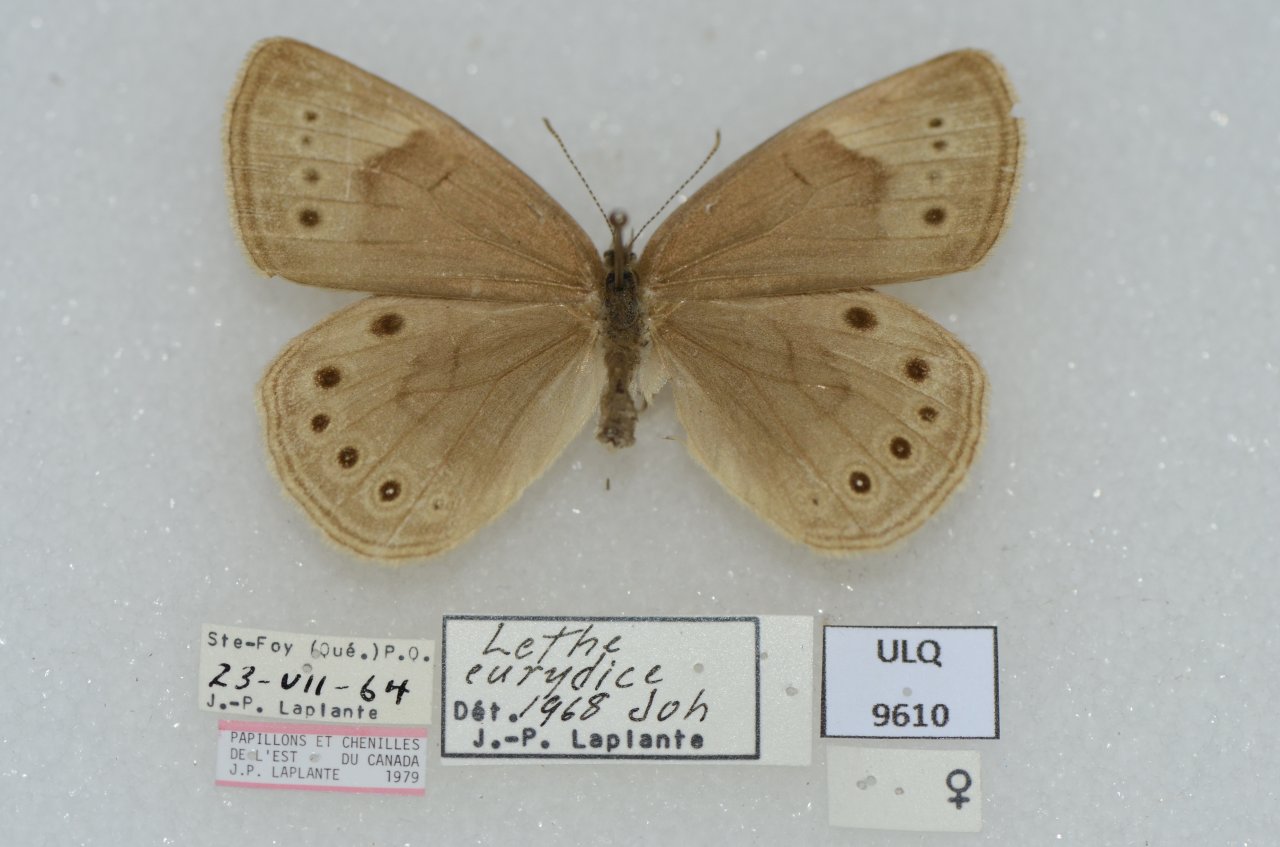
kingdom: Animalia
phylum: Arthropoda
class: Insecta
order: Lepidoptera
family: Nymphalidae
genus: Lethe
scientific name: Lethe eurydice
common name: Eyed Brown
